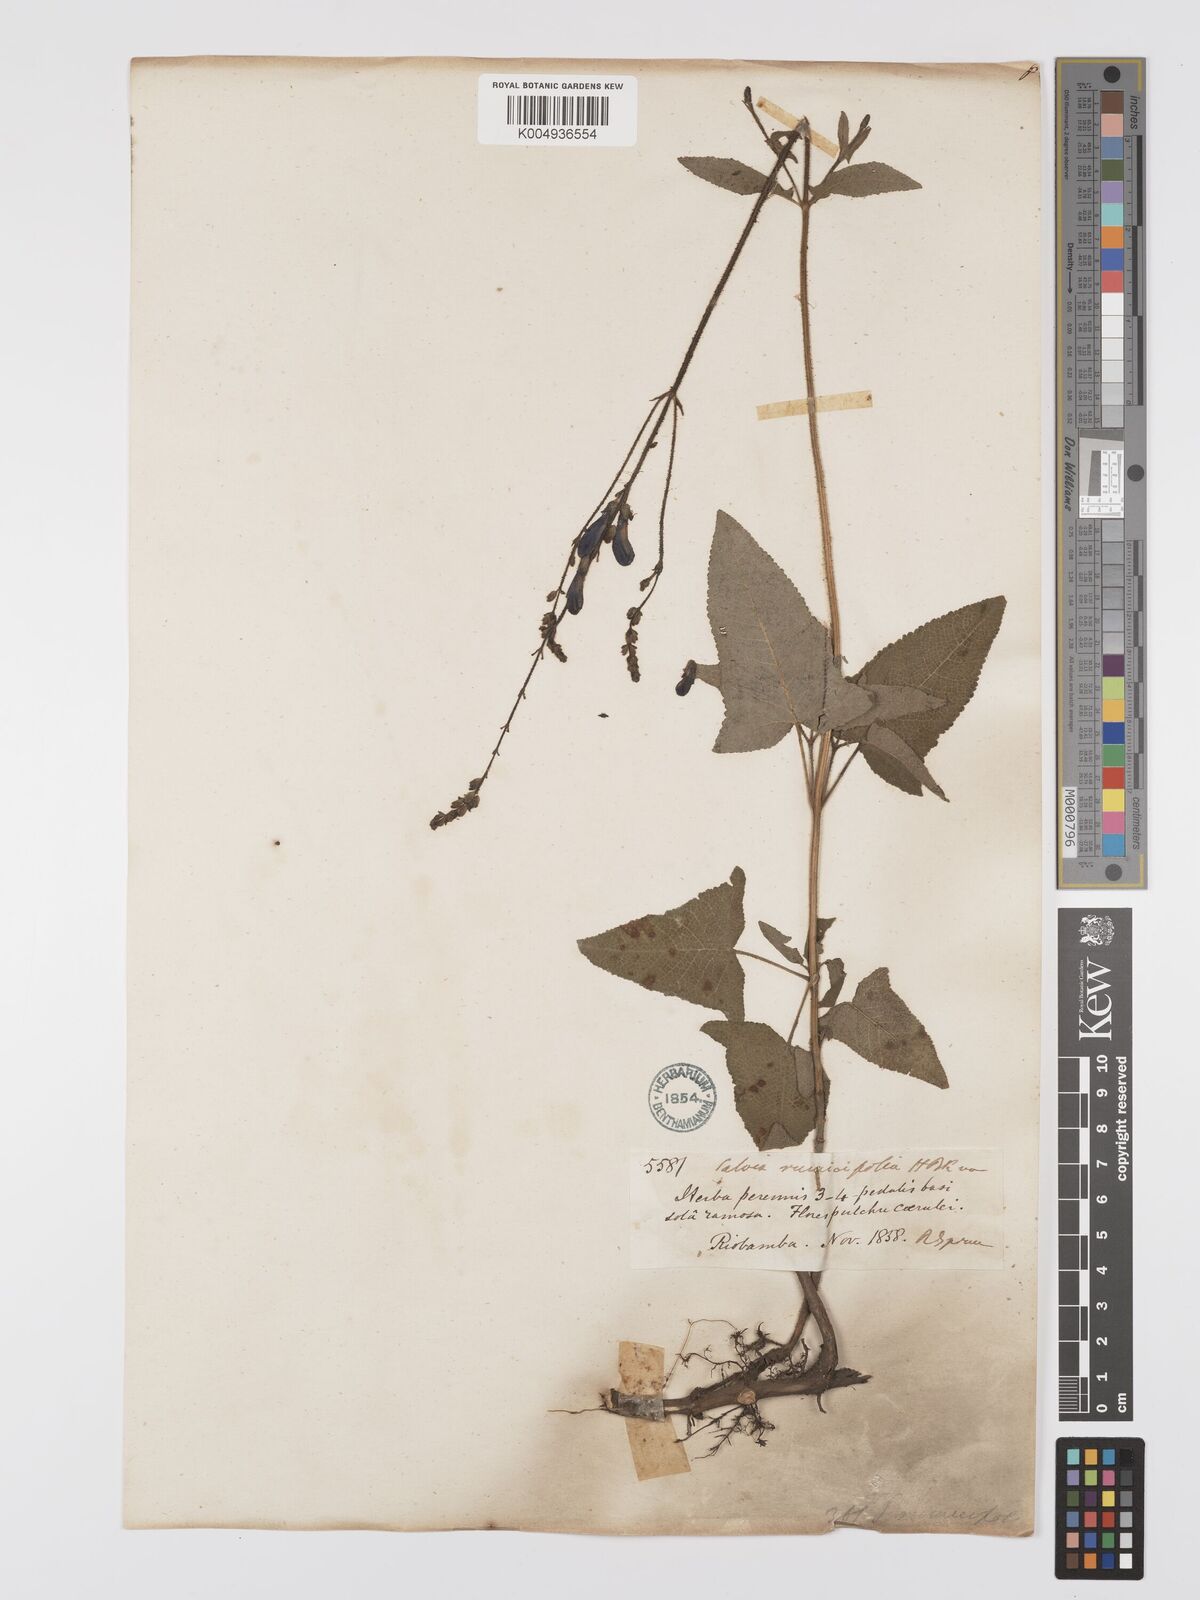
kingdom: Plantae
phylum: Tracheophyta
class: Magnoliopsida
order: Lamiales
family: Lamiaceae
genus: Salvia
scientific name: Salvia sagittata
